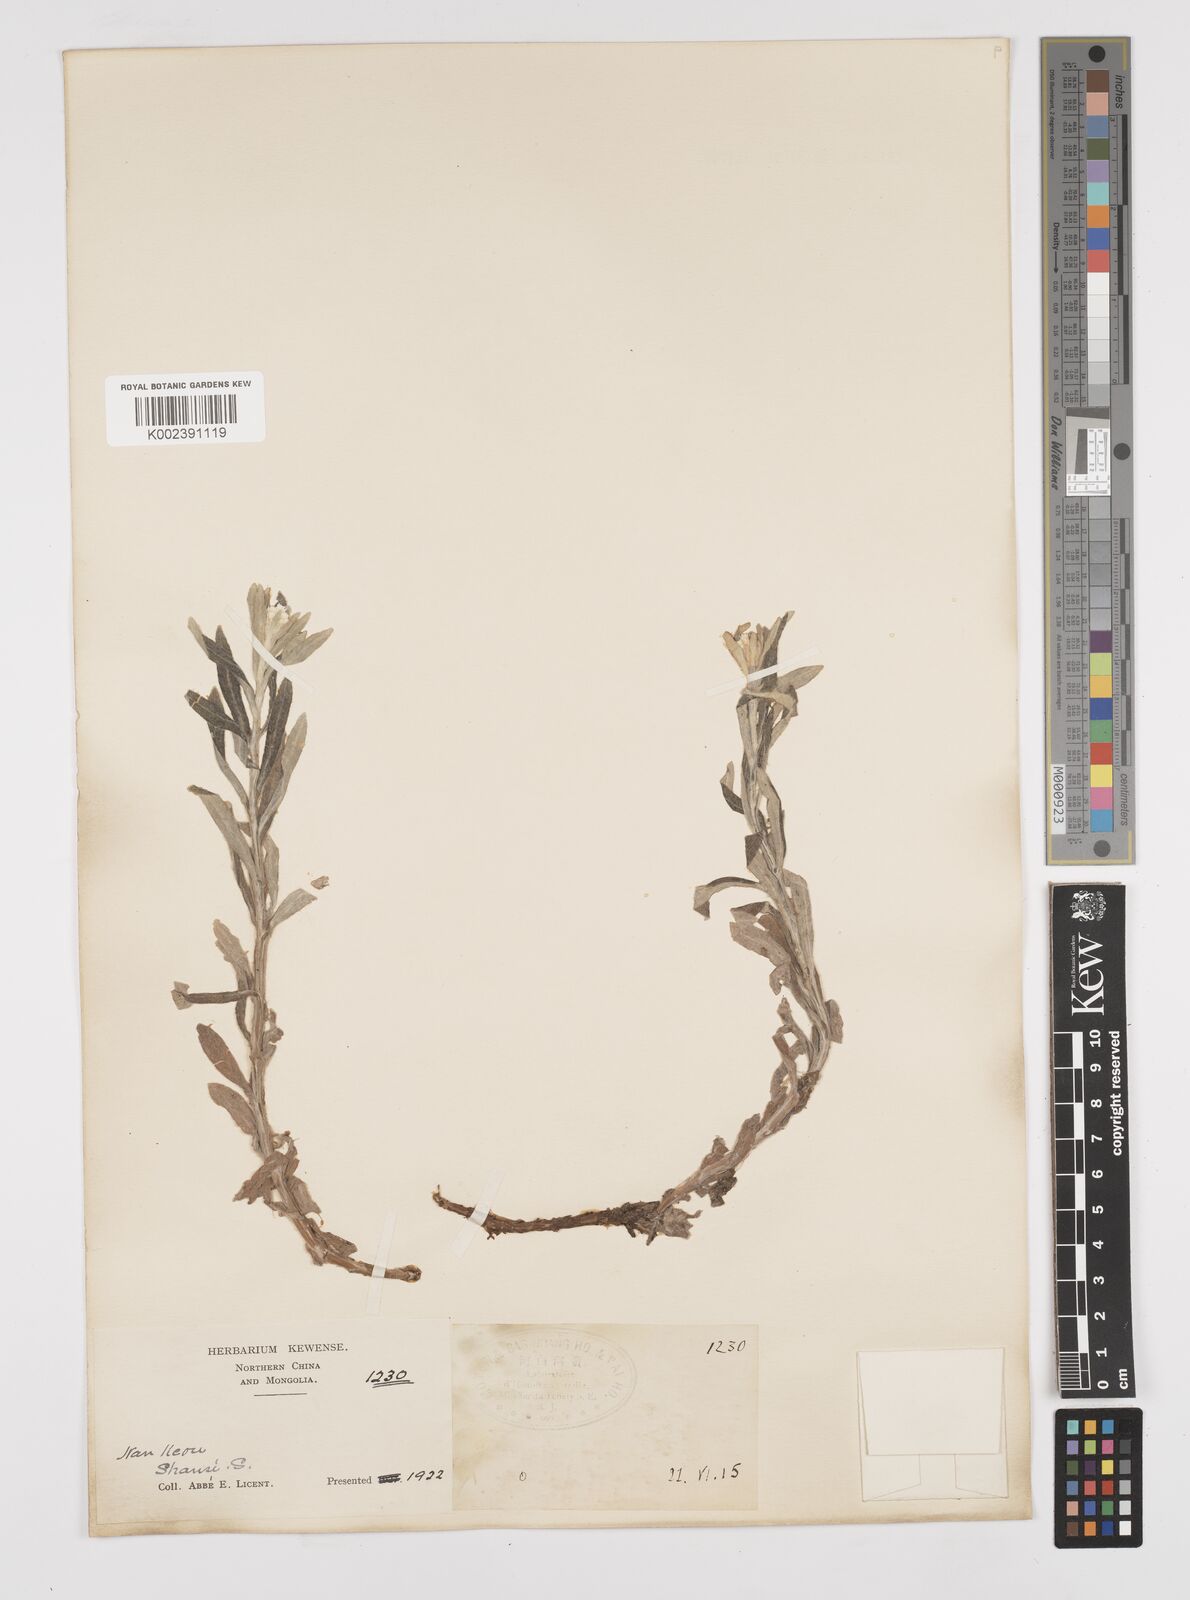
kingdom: Plantae
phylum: Tracheophyta
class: Magnoliopsida
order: Asterales
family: Asteraceae
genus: Anaphalis
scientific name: Anaphalis margaritacea
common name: Pearly everlasting
